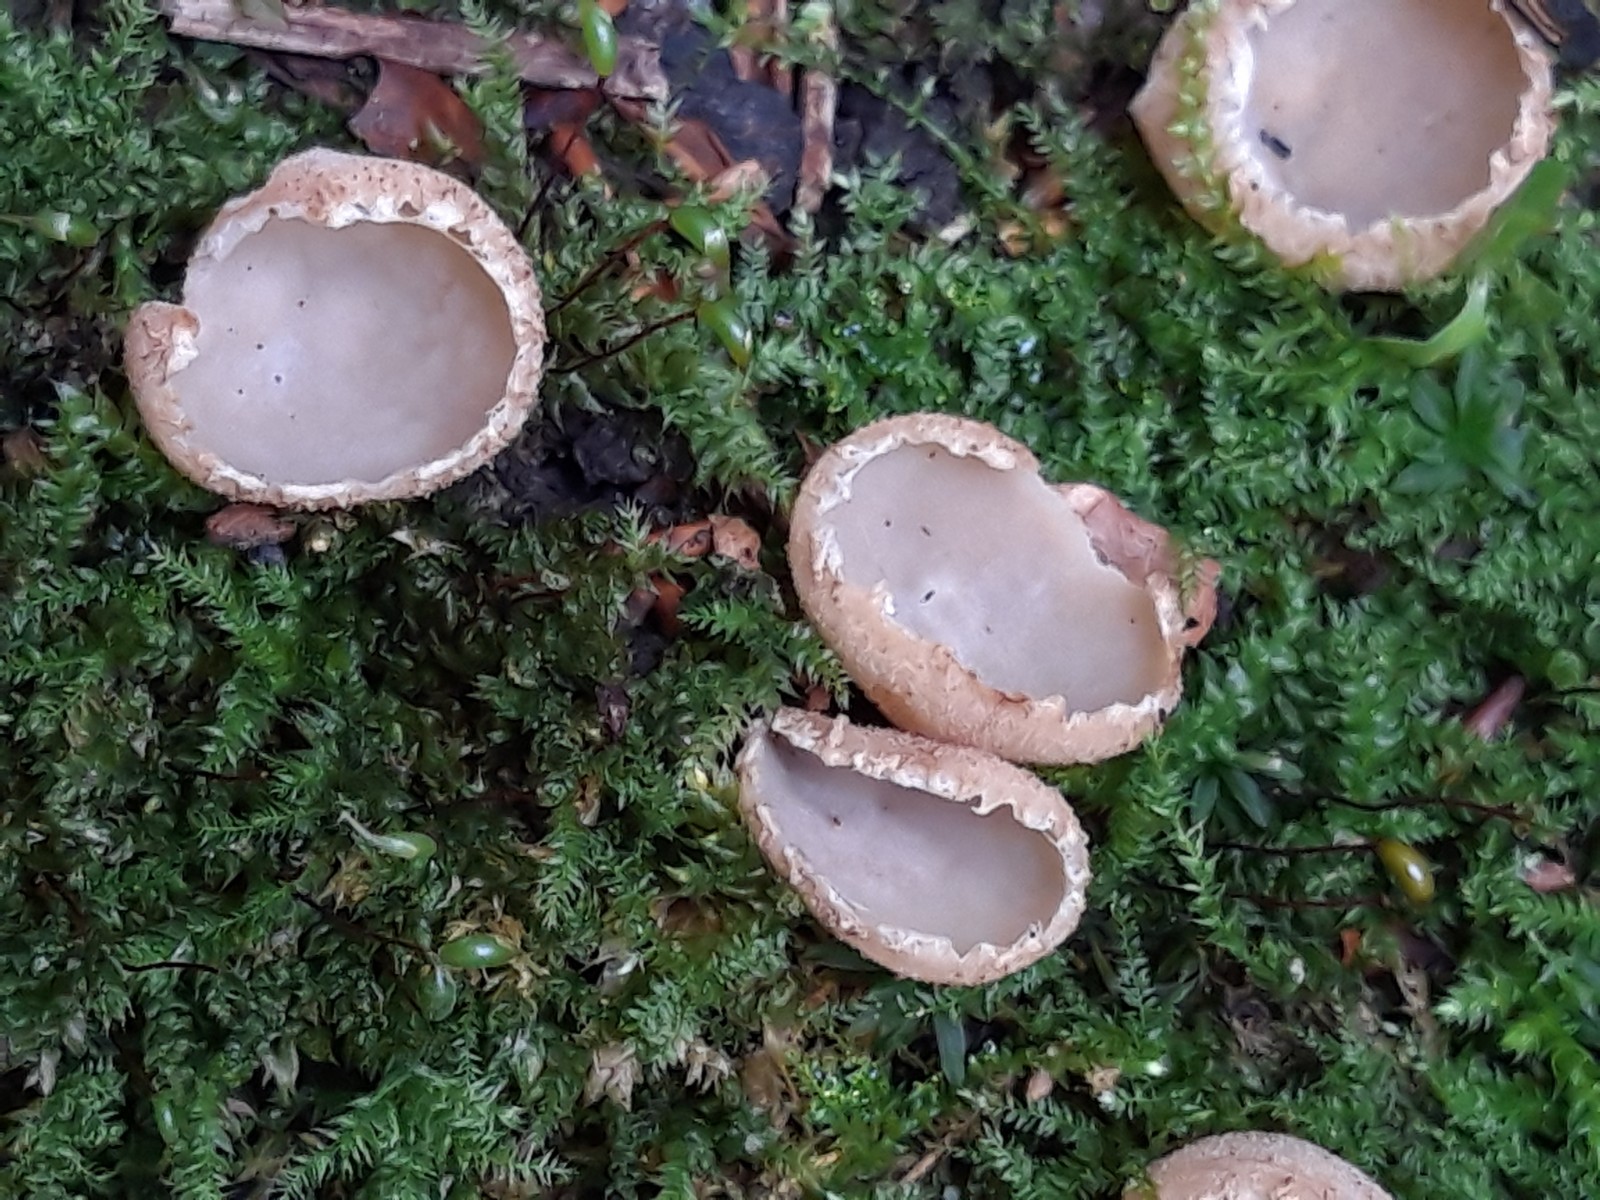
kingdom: Fungi
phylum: Ascomycota
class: Pezizomycetes
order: Pezizales
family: Pyronemataceae
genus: Tarzetta
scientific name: Tarzetta cupularis
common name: gulbrun pokalbæger
